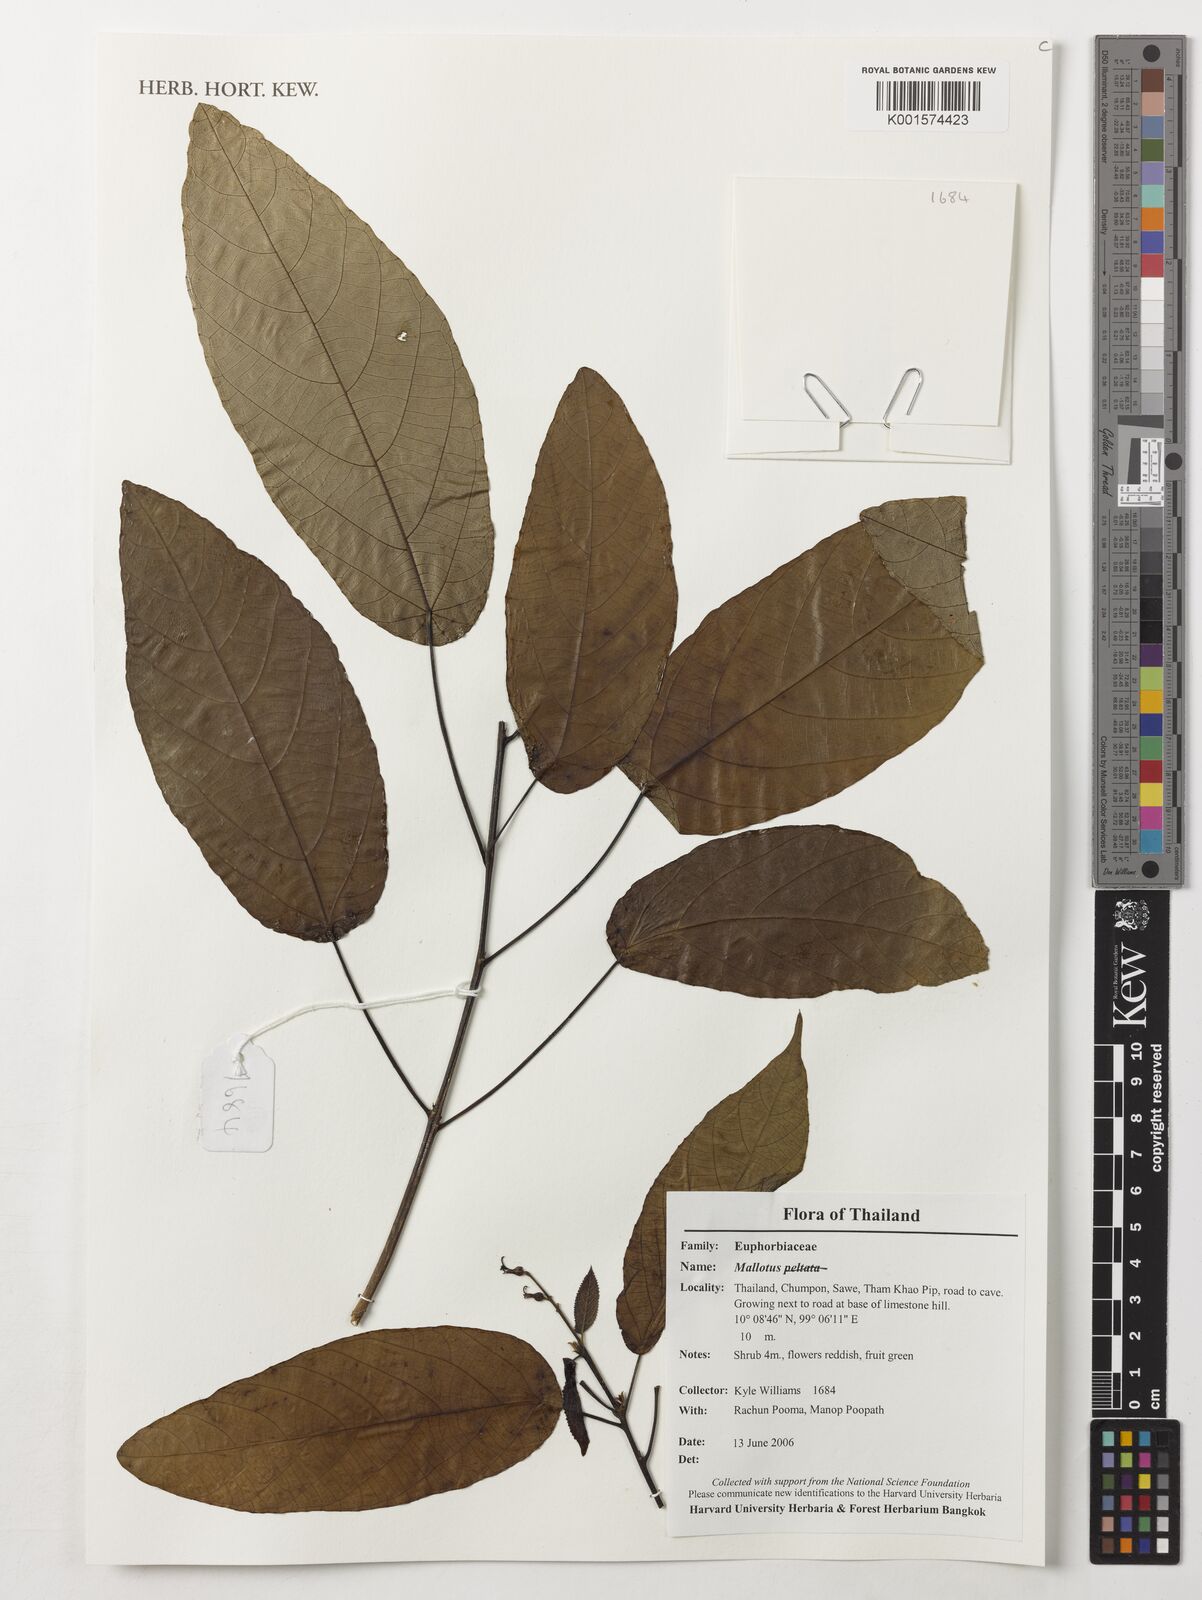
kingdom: Plantae
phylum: Tracheophyta
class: Magnoliopsida
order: Malpighiales
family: Euphorbiaceae
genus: Mallotus
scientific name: Mallotus
